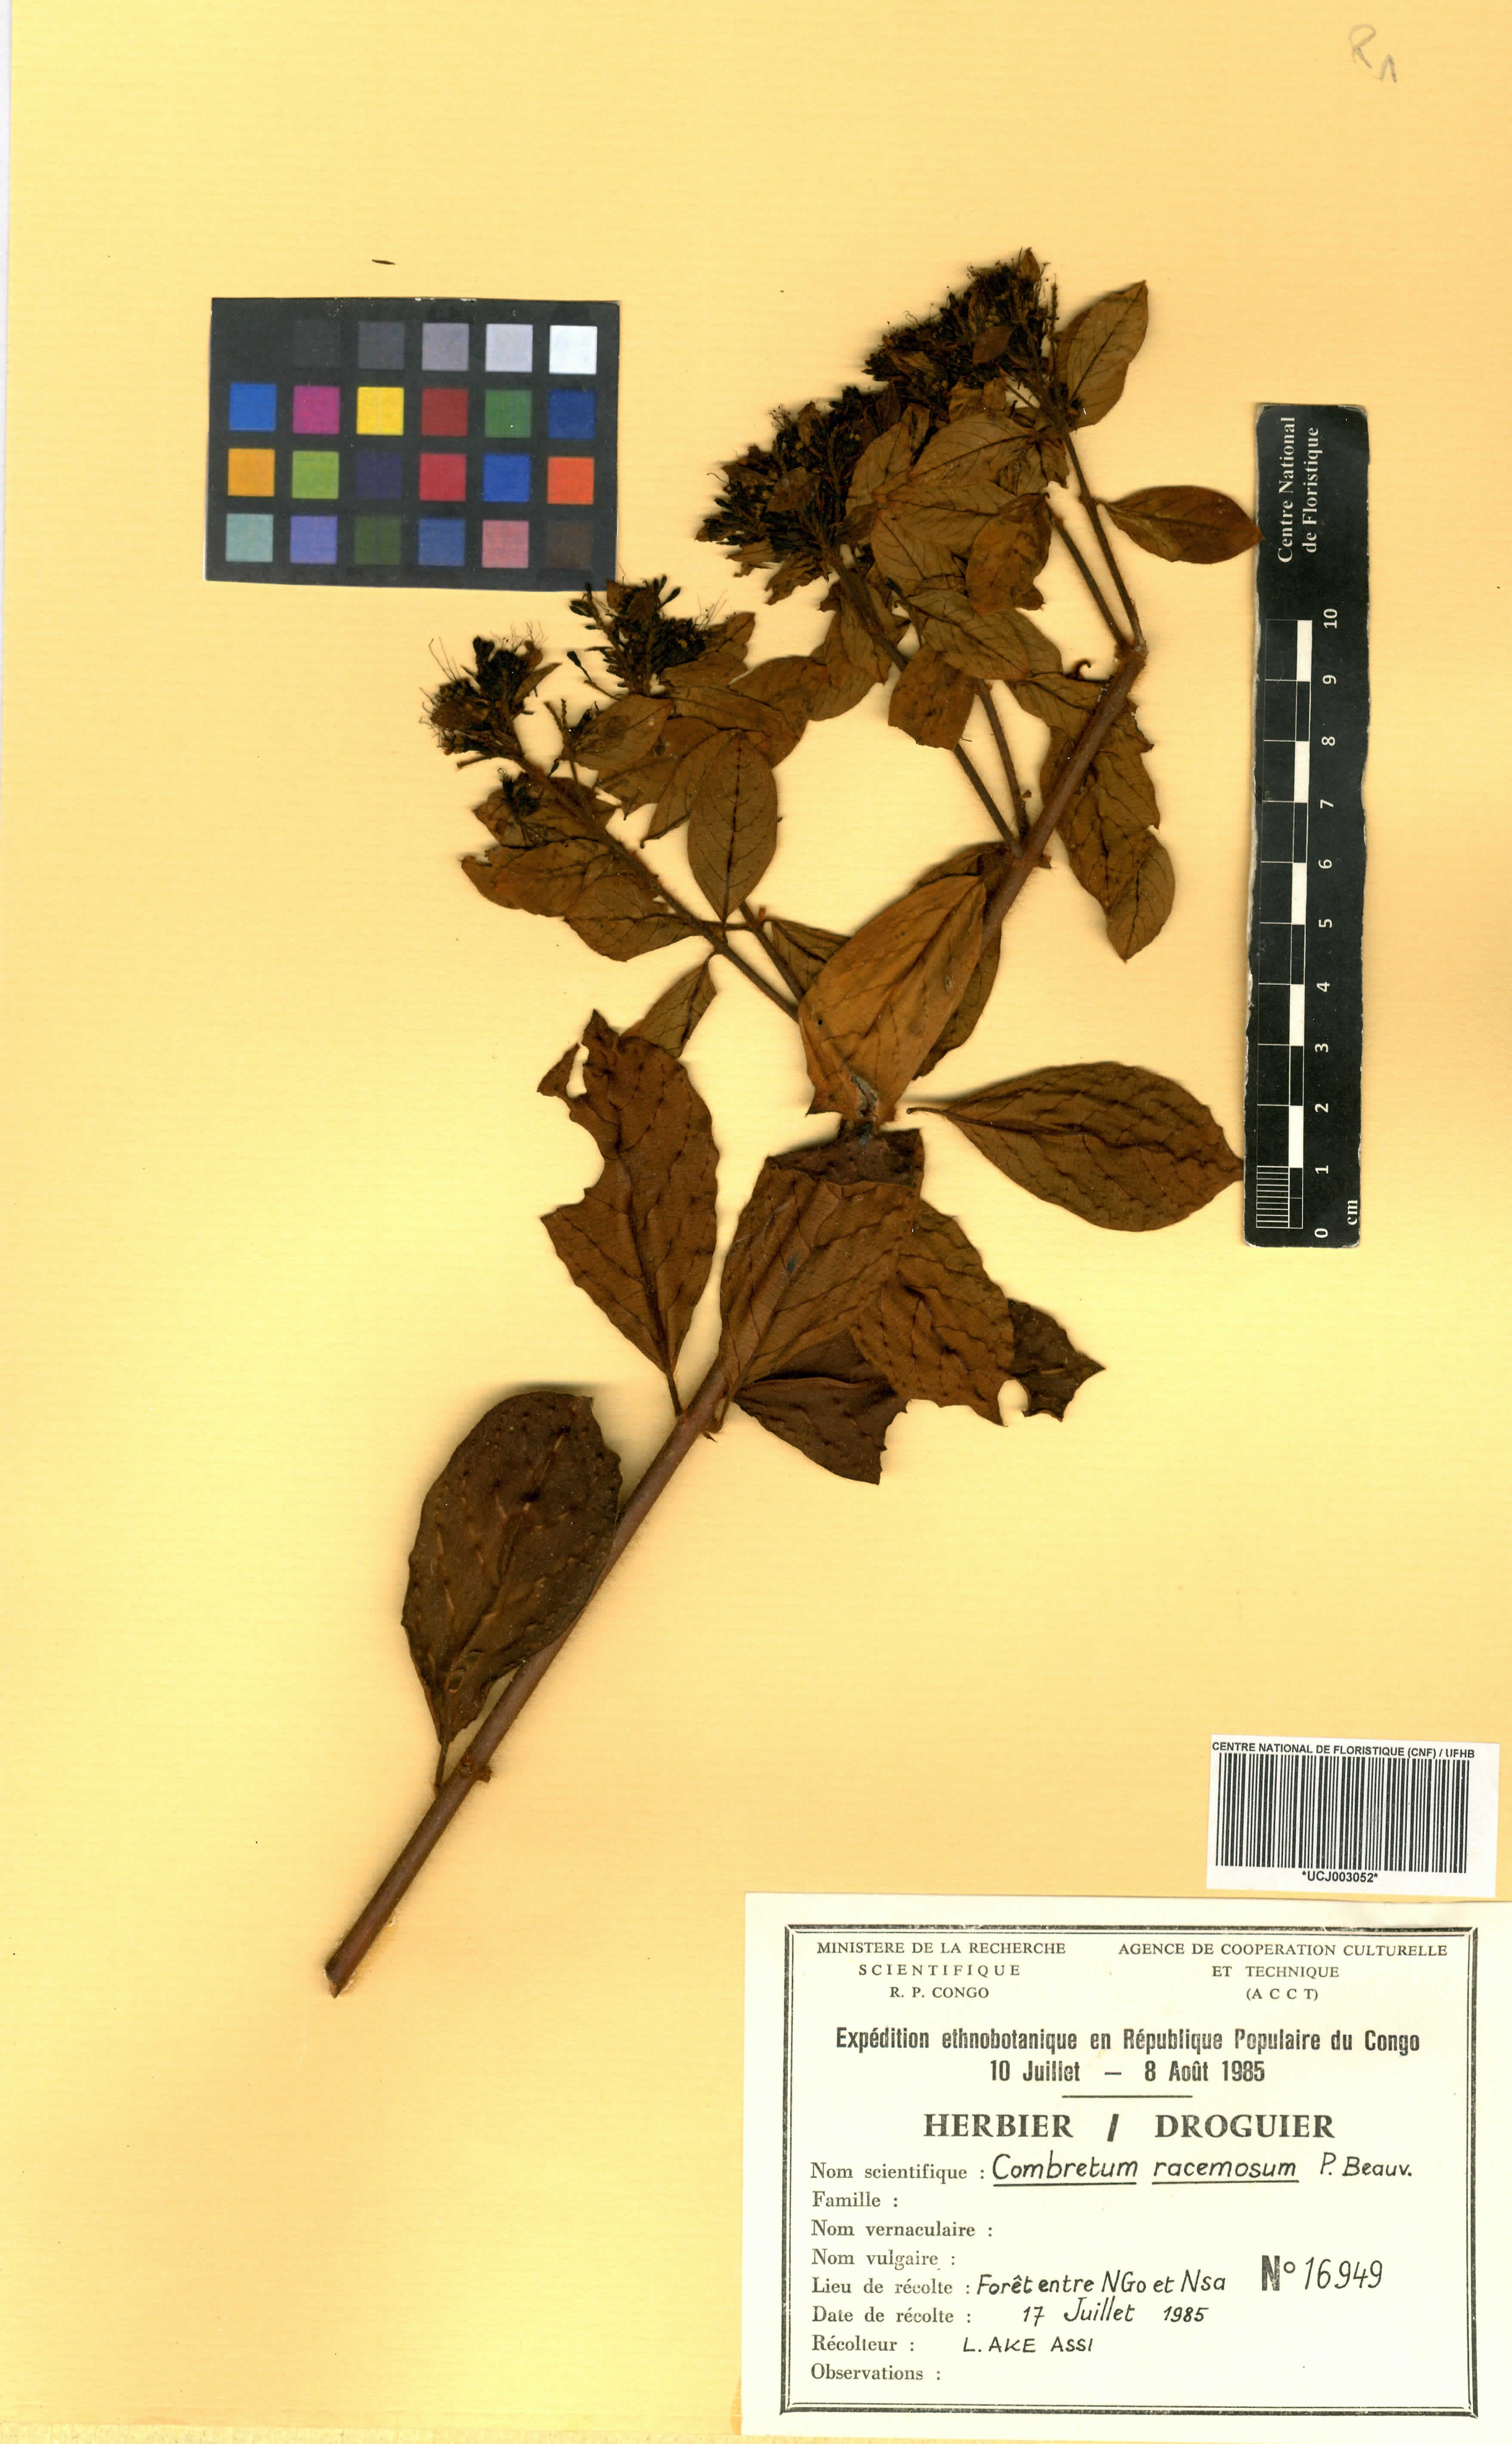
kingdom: Plantae
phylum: Tracheophyta
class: Magnoliopsida
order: Myrtales
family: Combretaceae
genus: Combretum
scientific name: Combretum racemosum
